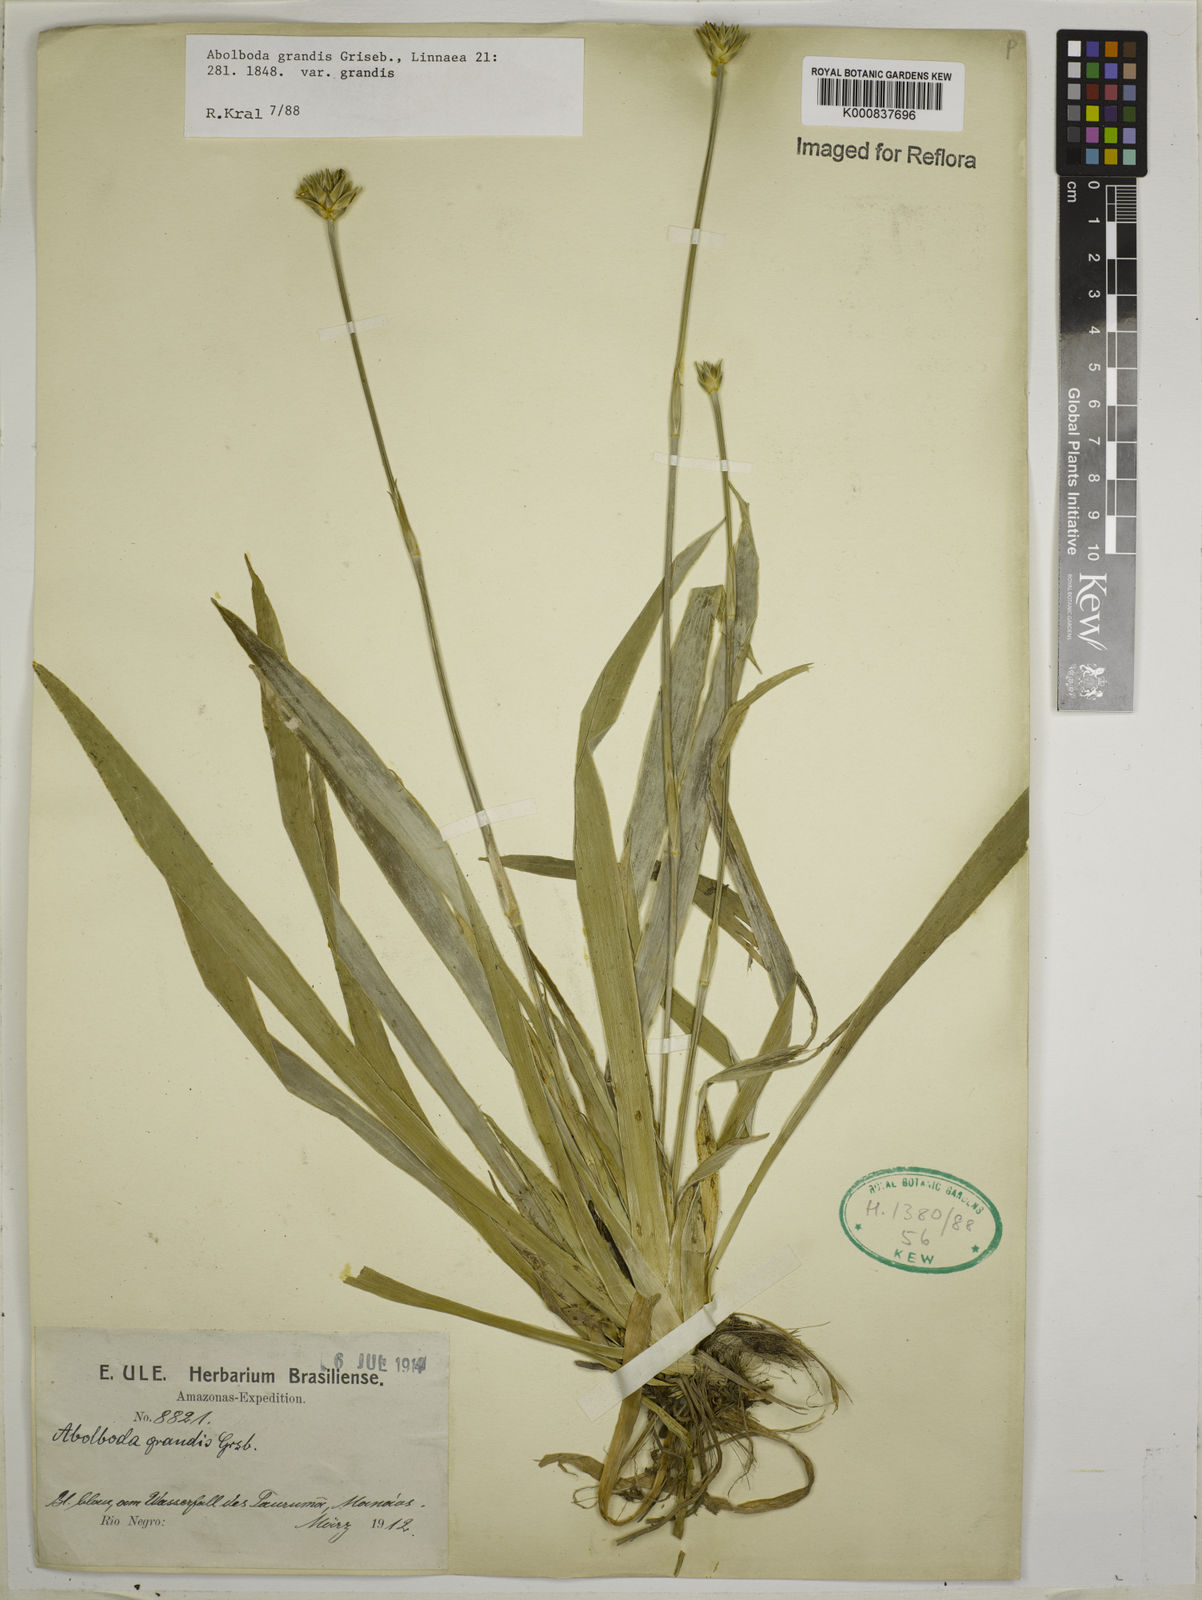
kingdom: Plantae
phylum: Tracheophyta
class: Liliopsida
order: Poales
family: Xyridaceae
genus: Abolboda
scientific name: Abolboda grandis
